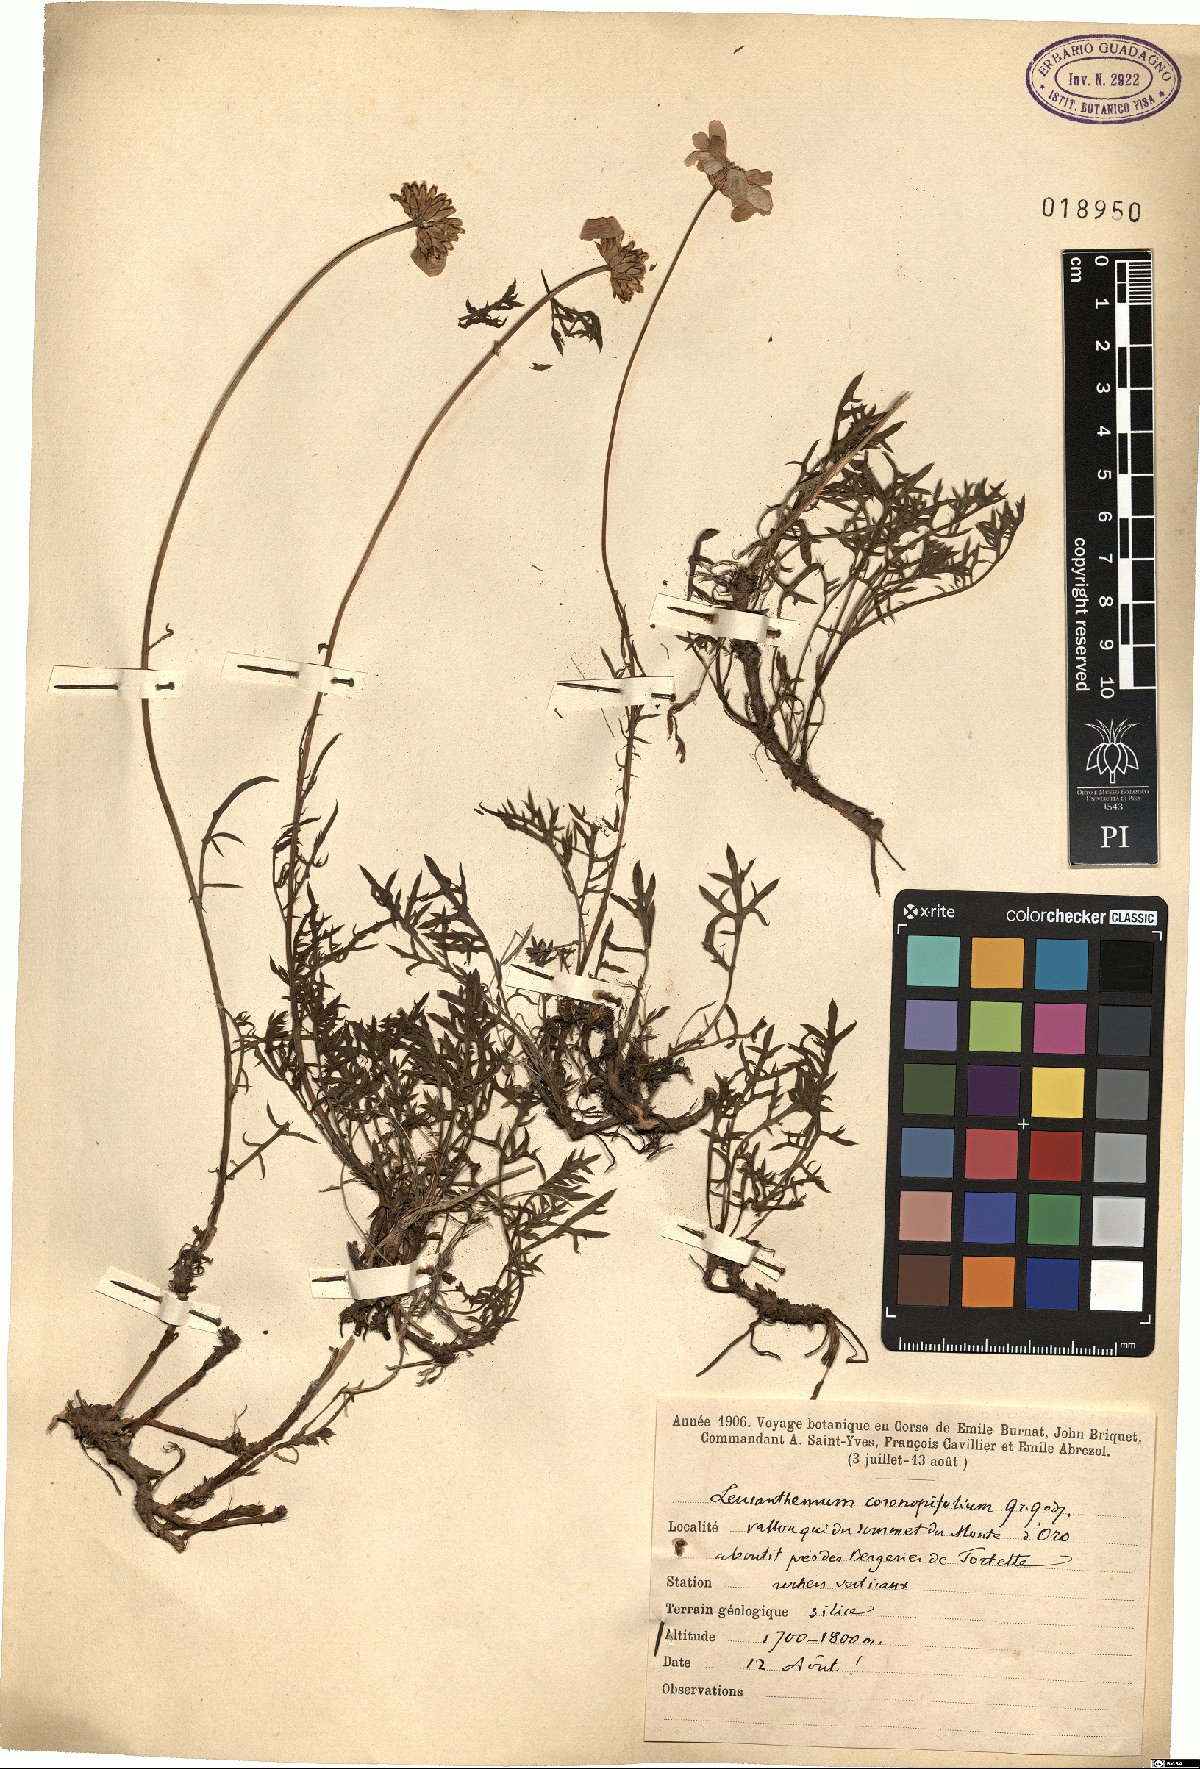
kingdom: Plantae
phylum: Tracheophyta
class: Magnoliopsida
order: Asterales
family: Asteraceae
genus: Leucanthemum
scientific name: Leucanthemum coronopifolium
